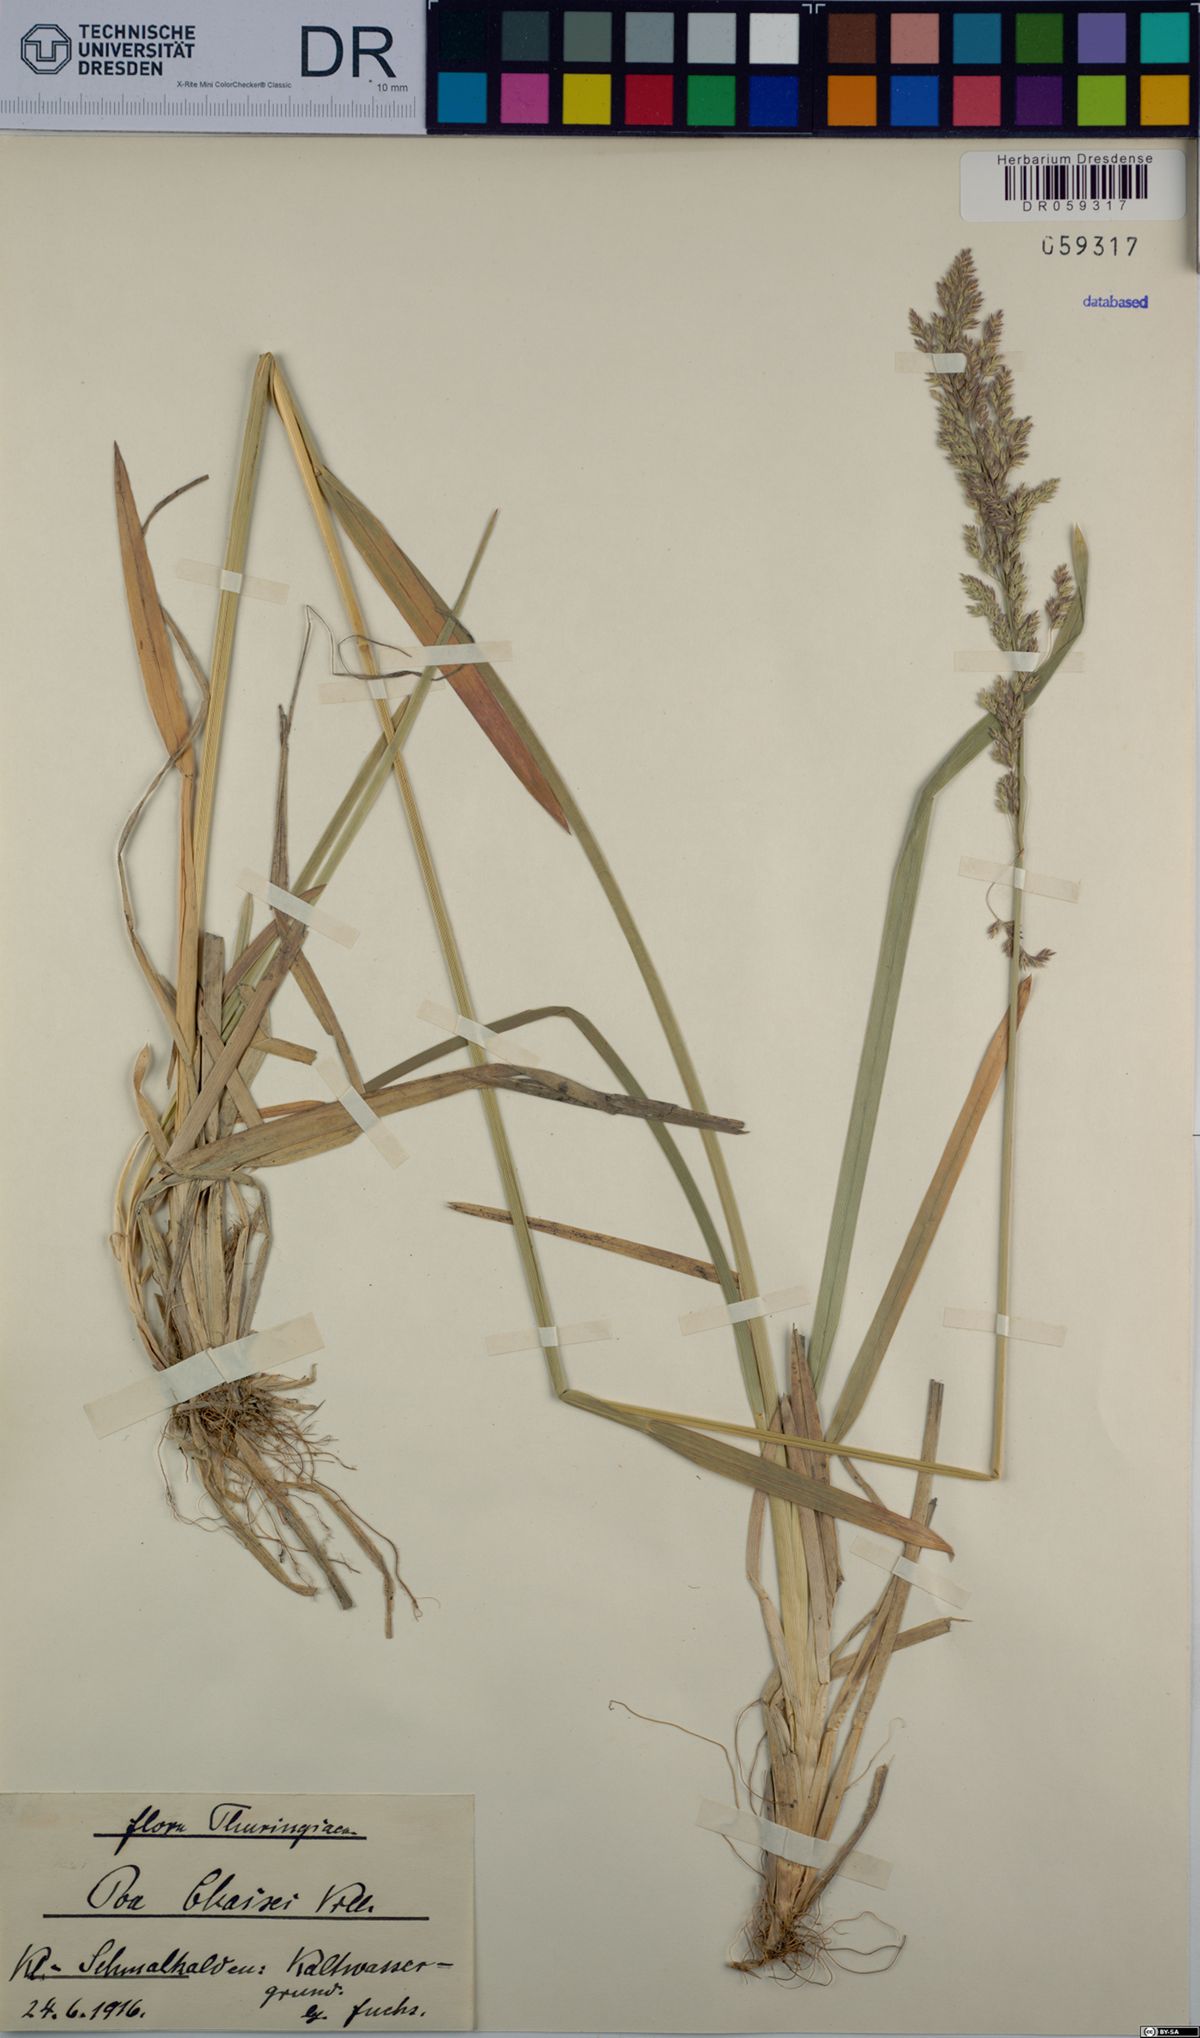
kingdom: Plantae
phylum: Tracheophyta
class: Liliopsida
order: Poales
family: Poaceae
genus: Poa
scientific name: Poa chaixii
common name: Broad-leaved meadow-grass
